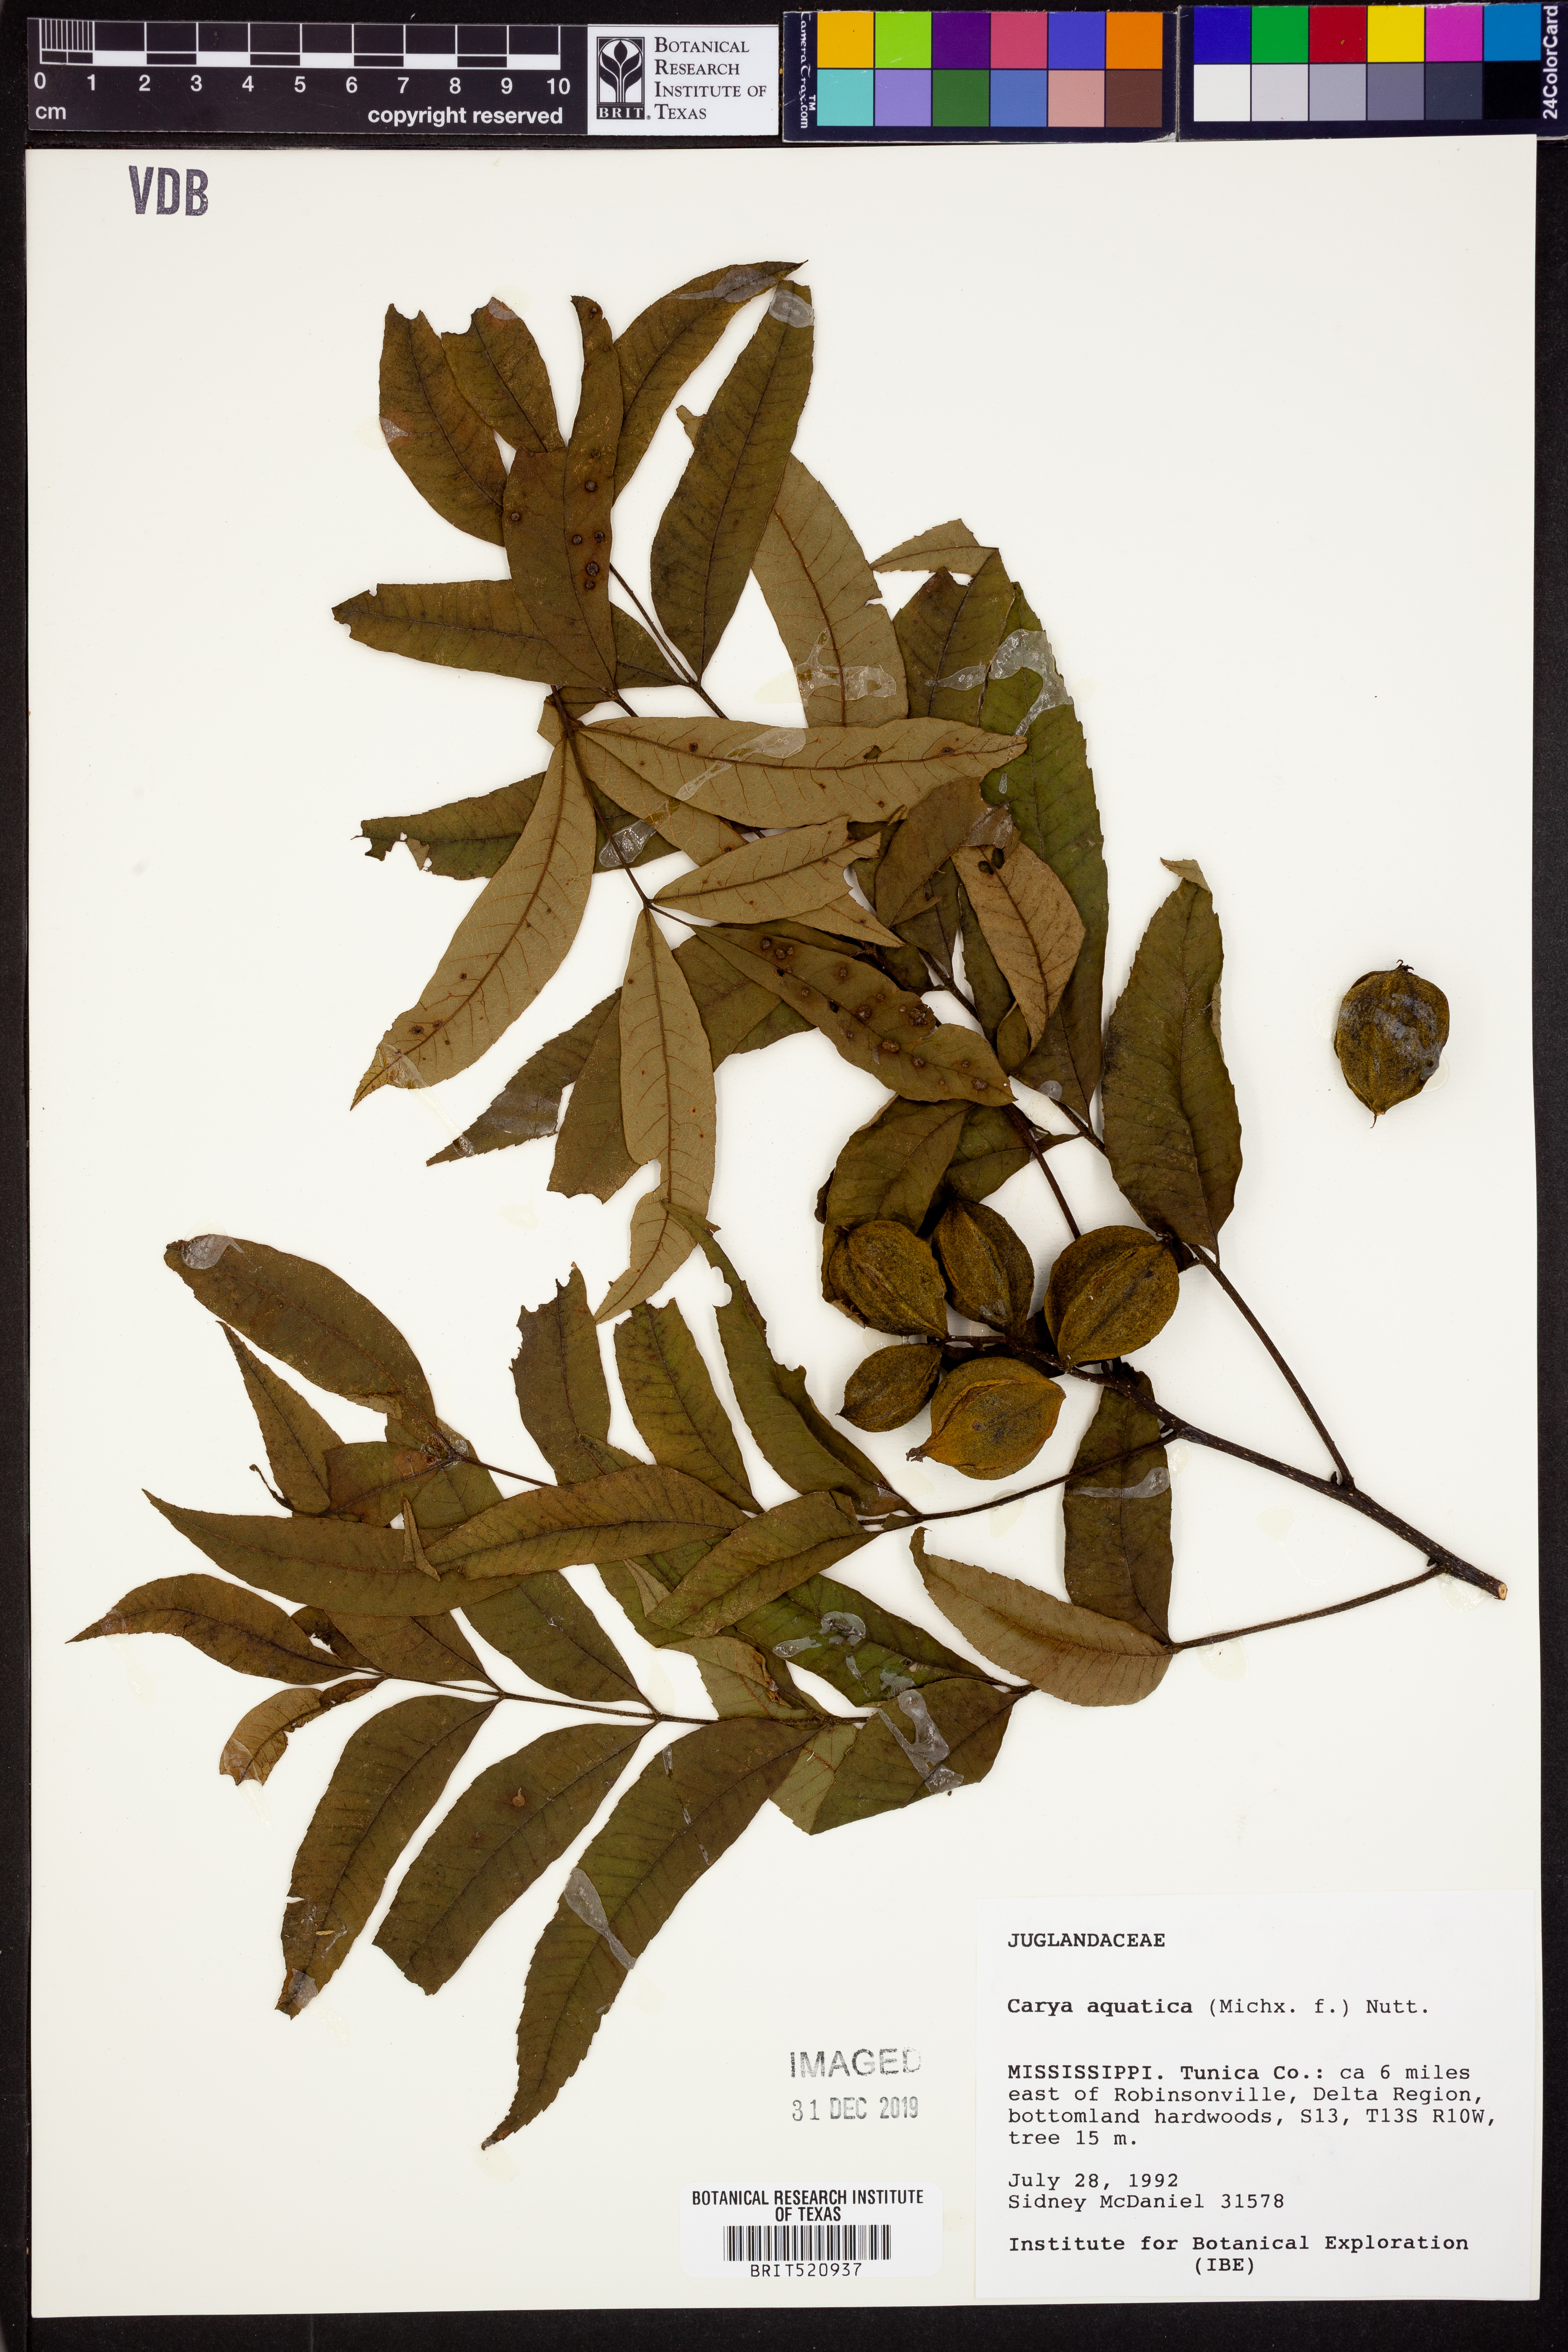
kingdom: Plantae
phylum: Tracheophyta
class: Magnoliopsida
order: Fagales
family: Juglandaceae
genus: Carya
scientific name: Carya aquatica
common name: Water hickory
